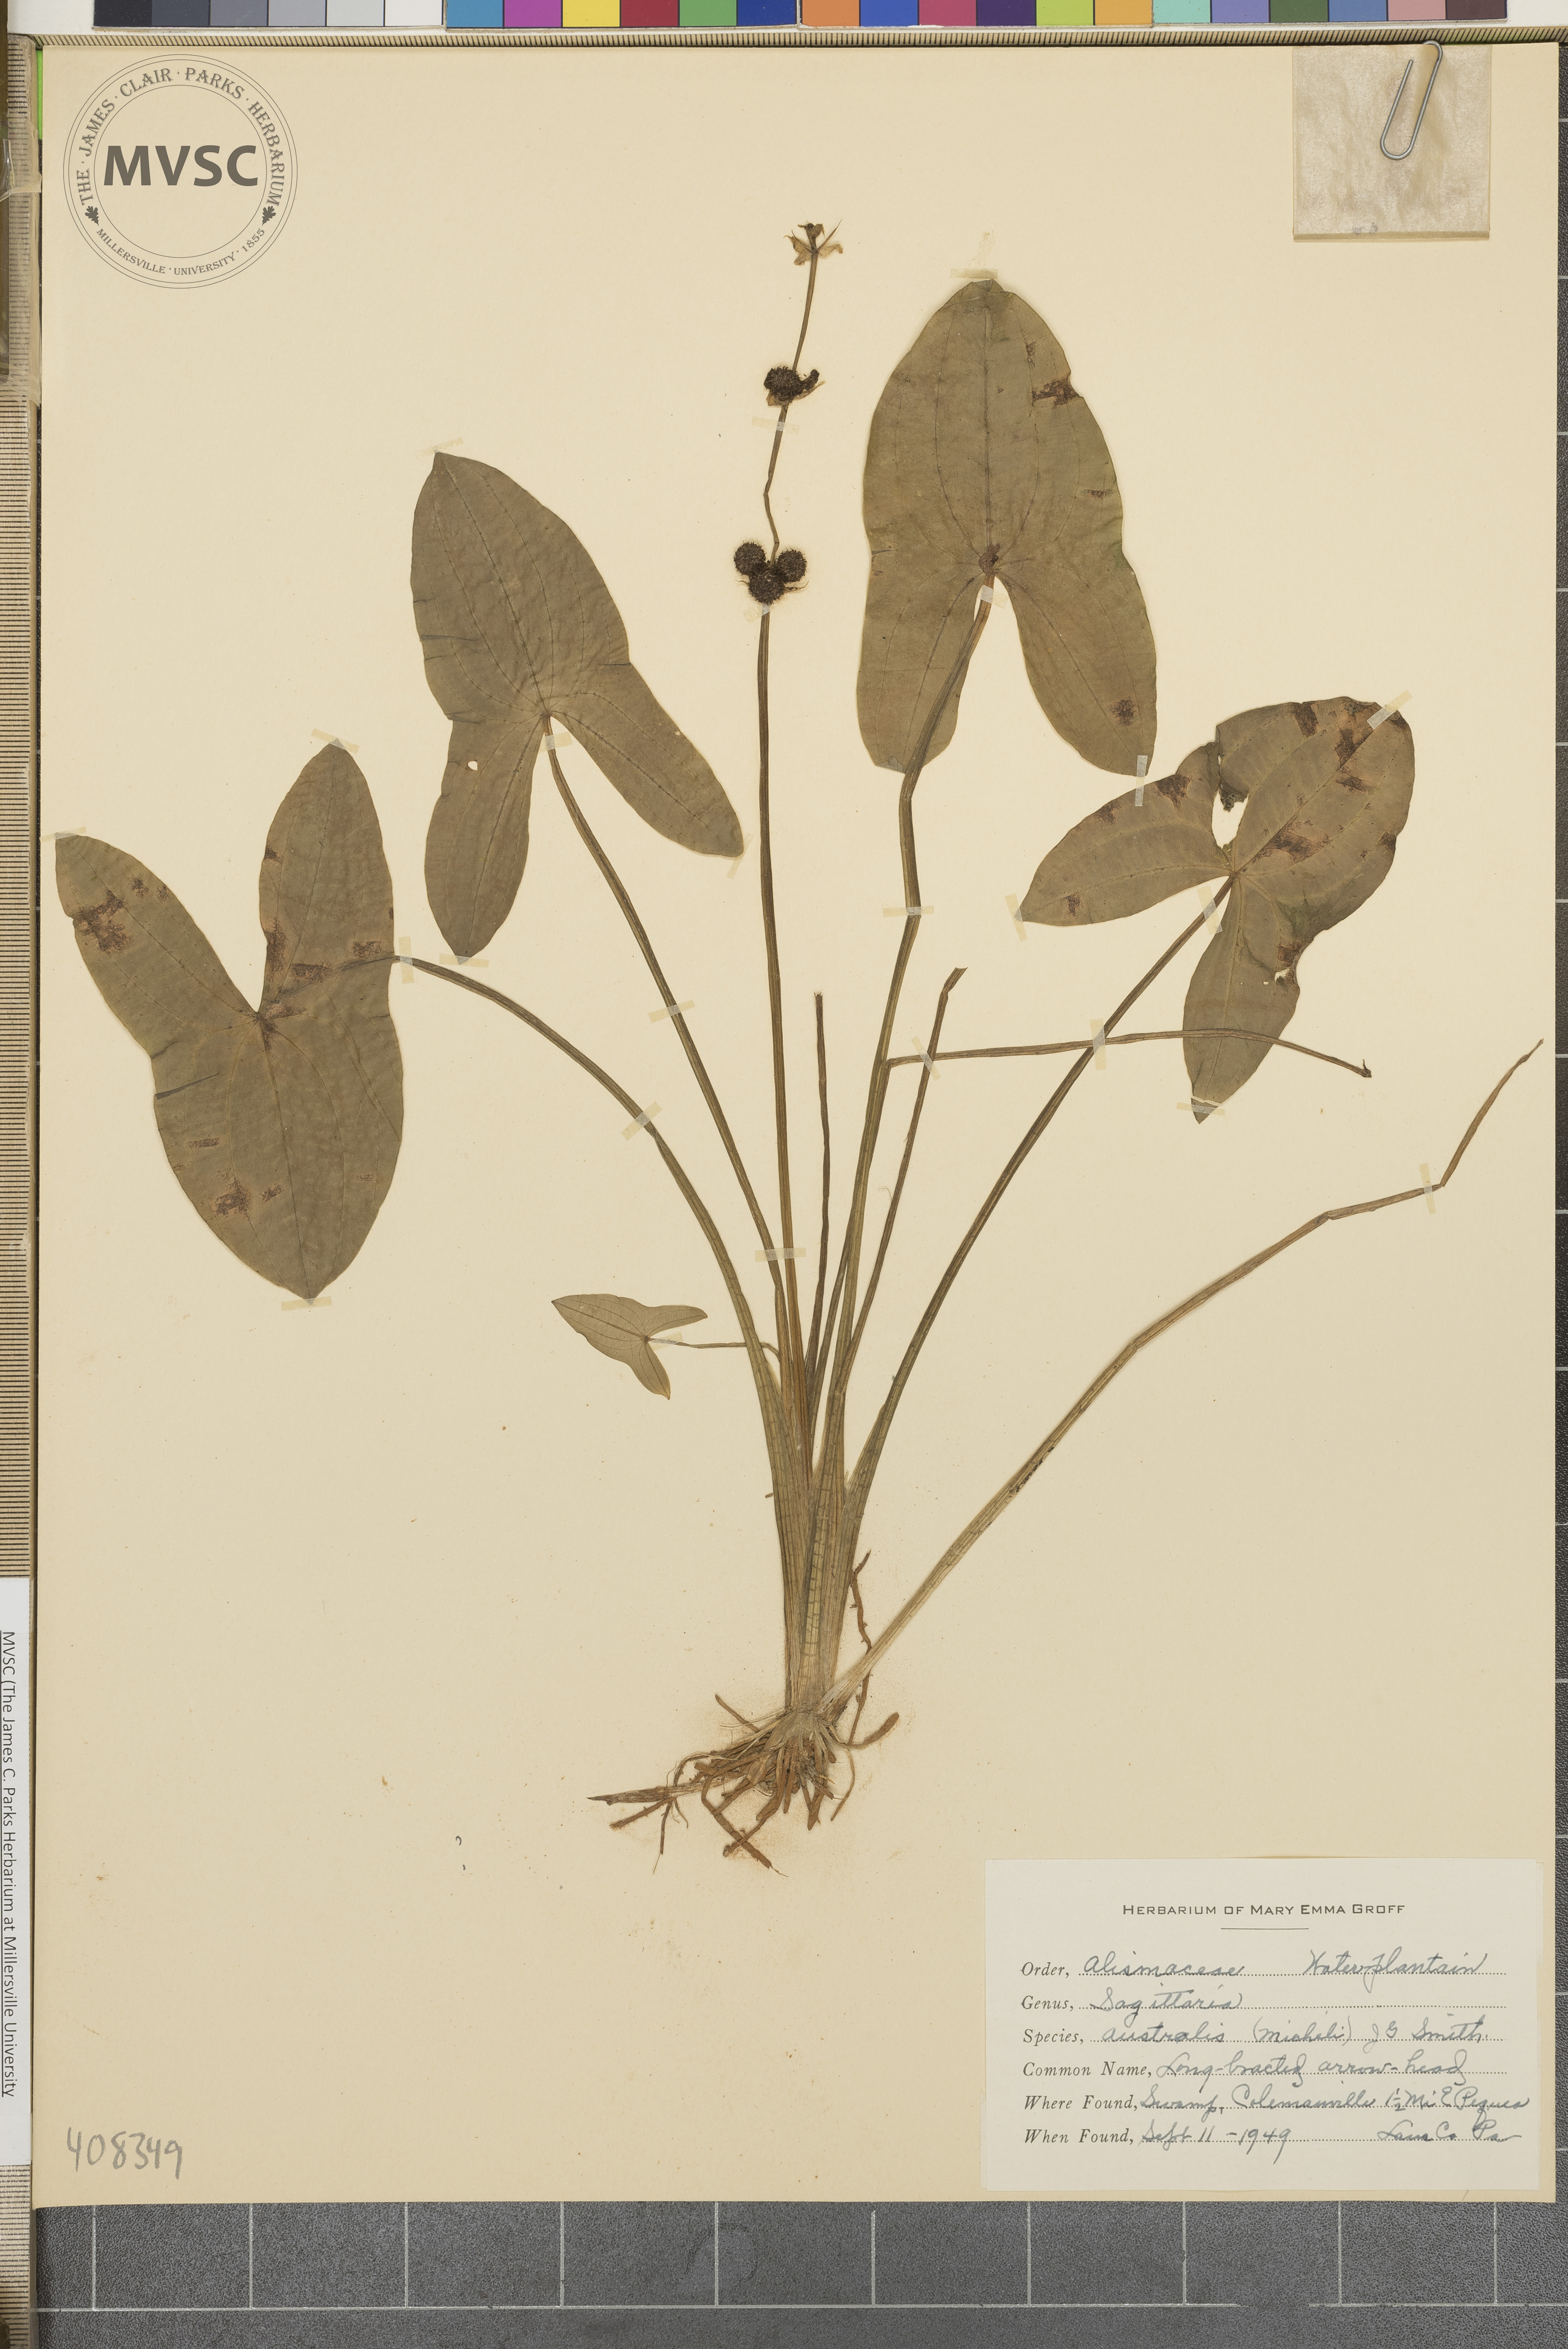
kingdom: Plantae
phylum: Tracheophyta
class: Liliopsida
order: Alismatales
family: Alismataceae
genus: Sagittaria
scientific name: Sagittaria australis
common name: Appalachian arrowhead
